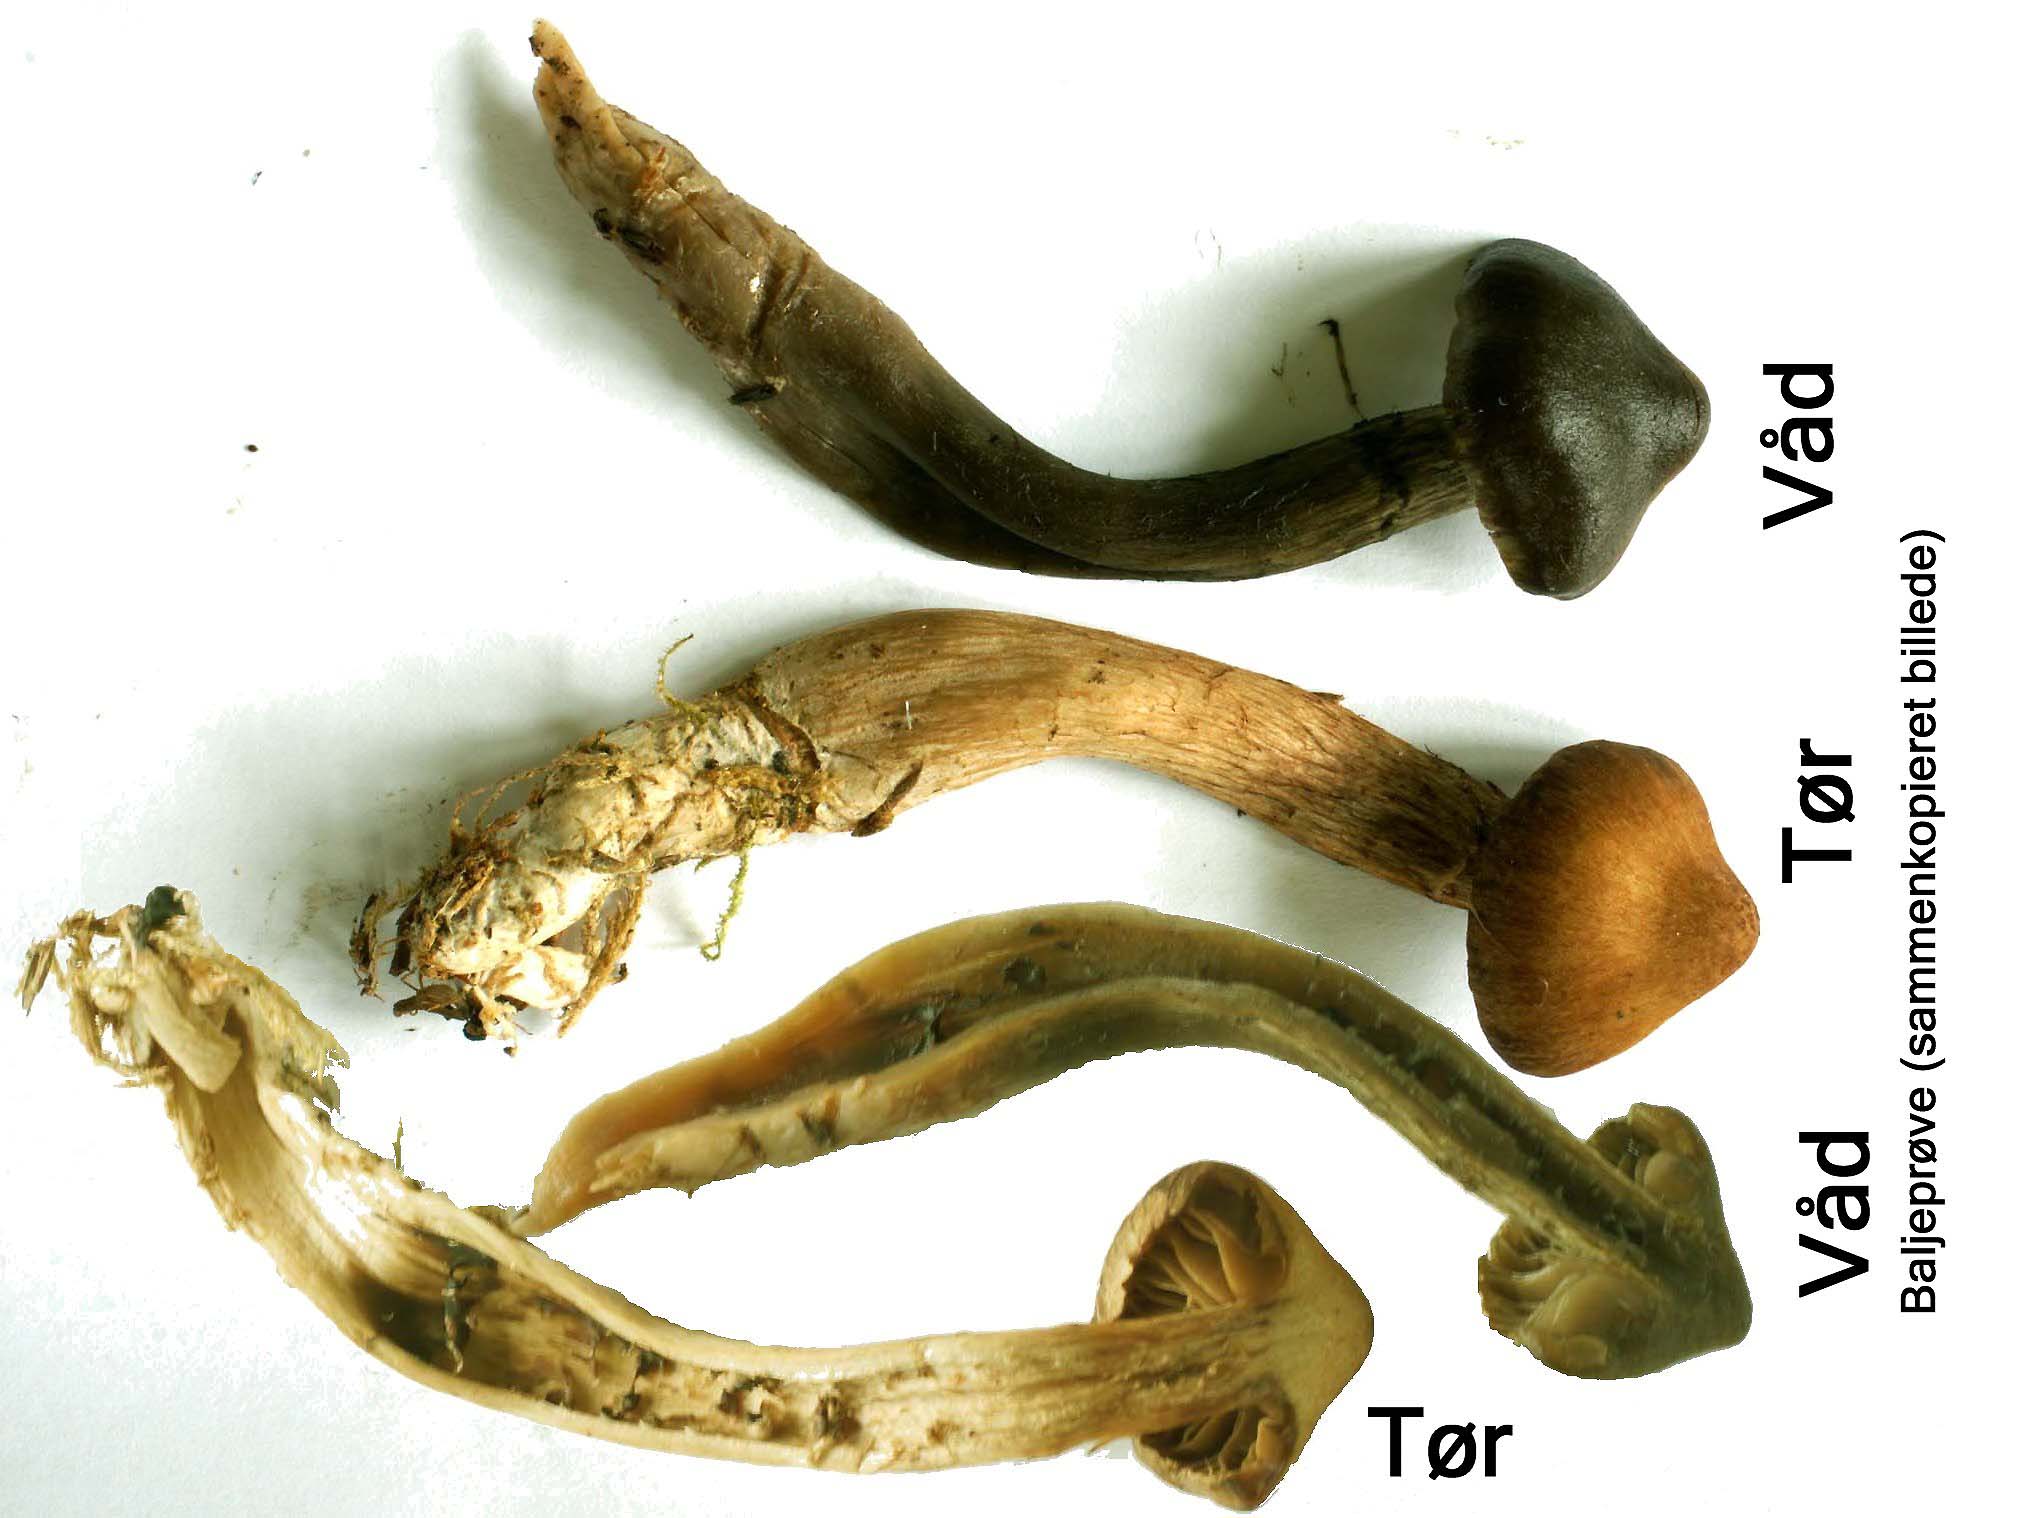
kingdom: Fungi
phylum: Basidiomycota
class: Agaricomycetes
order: Agaricales
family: Cortinariaceae
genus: Cortinarius
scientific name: Cortinarius glandicolor
